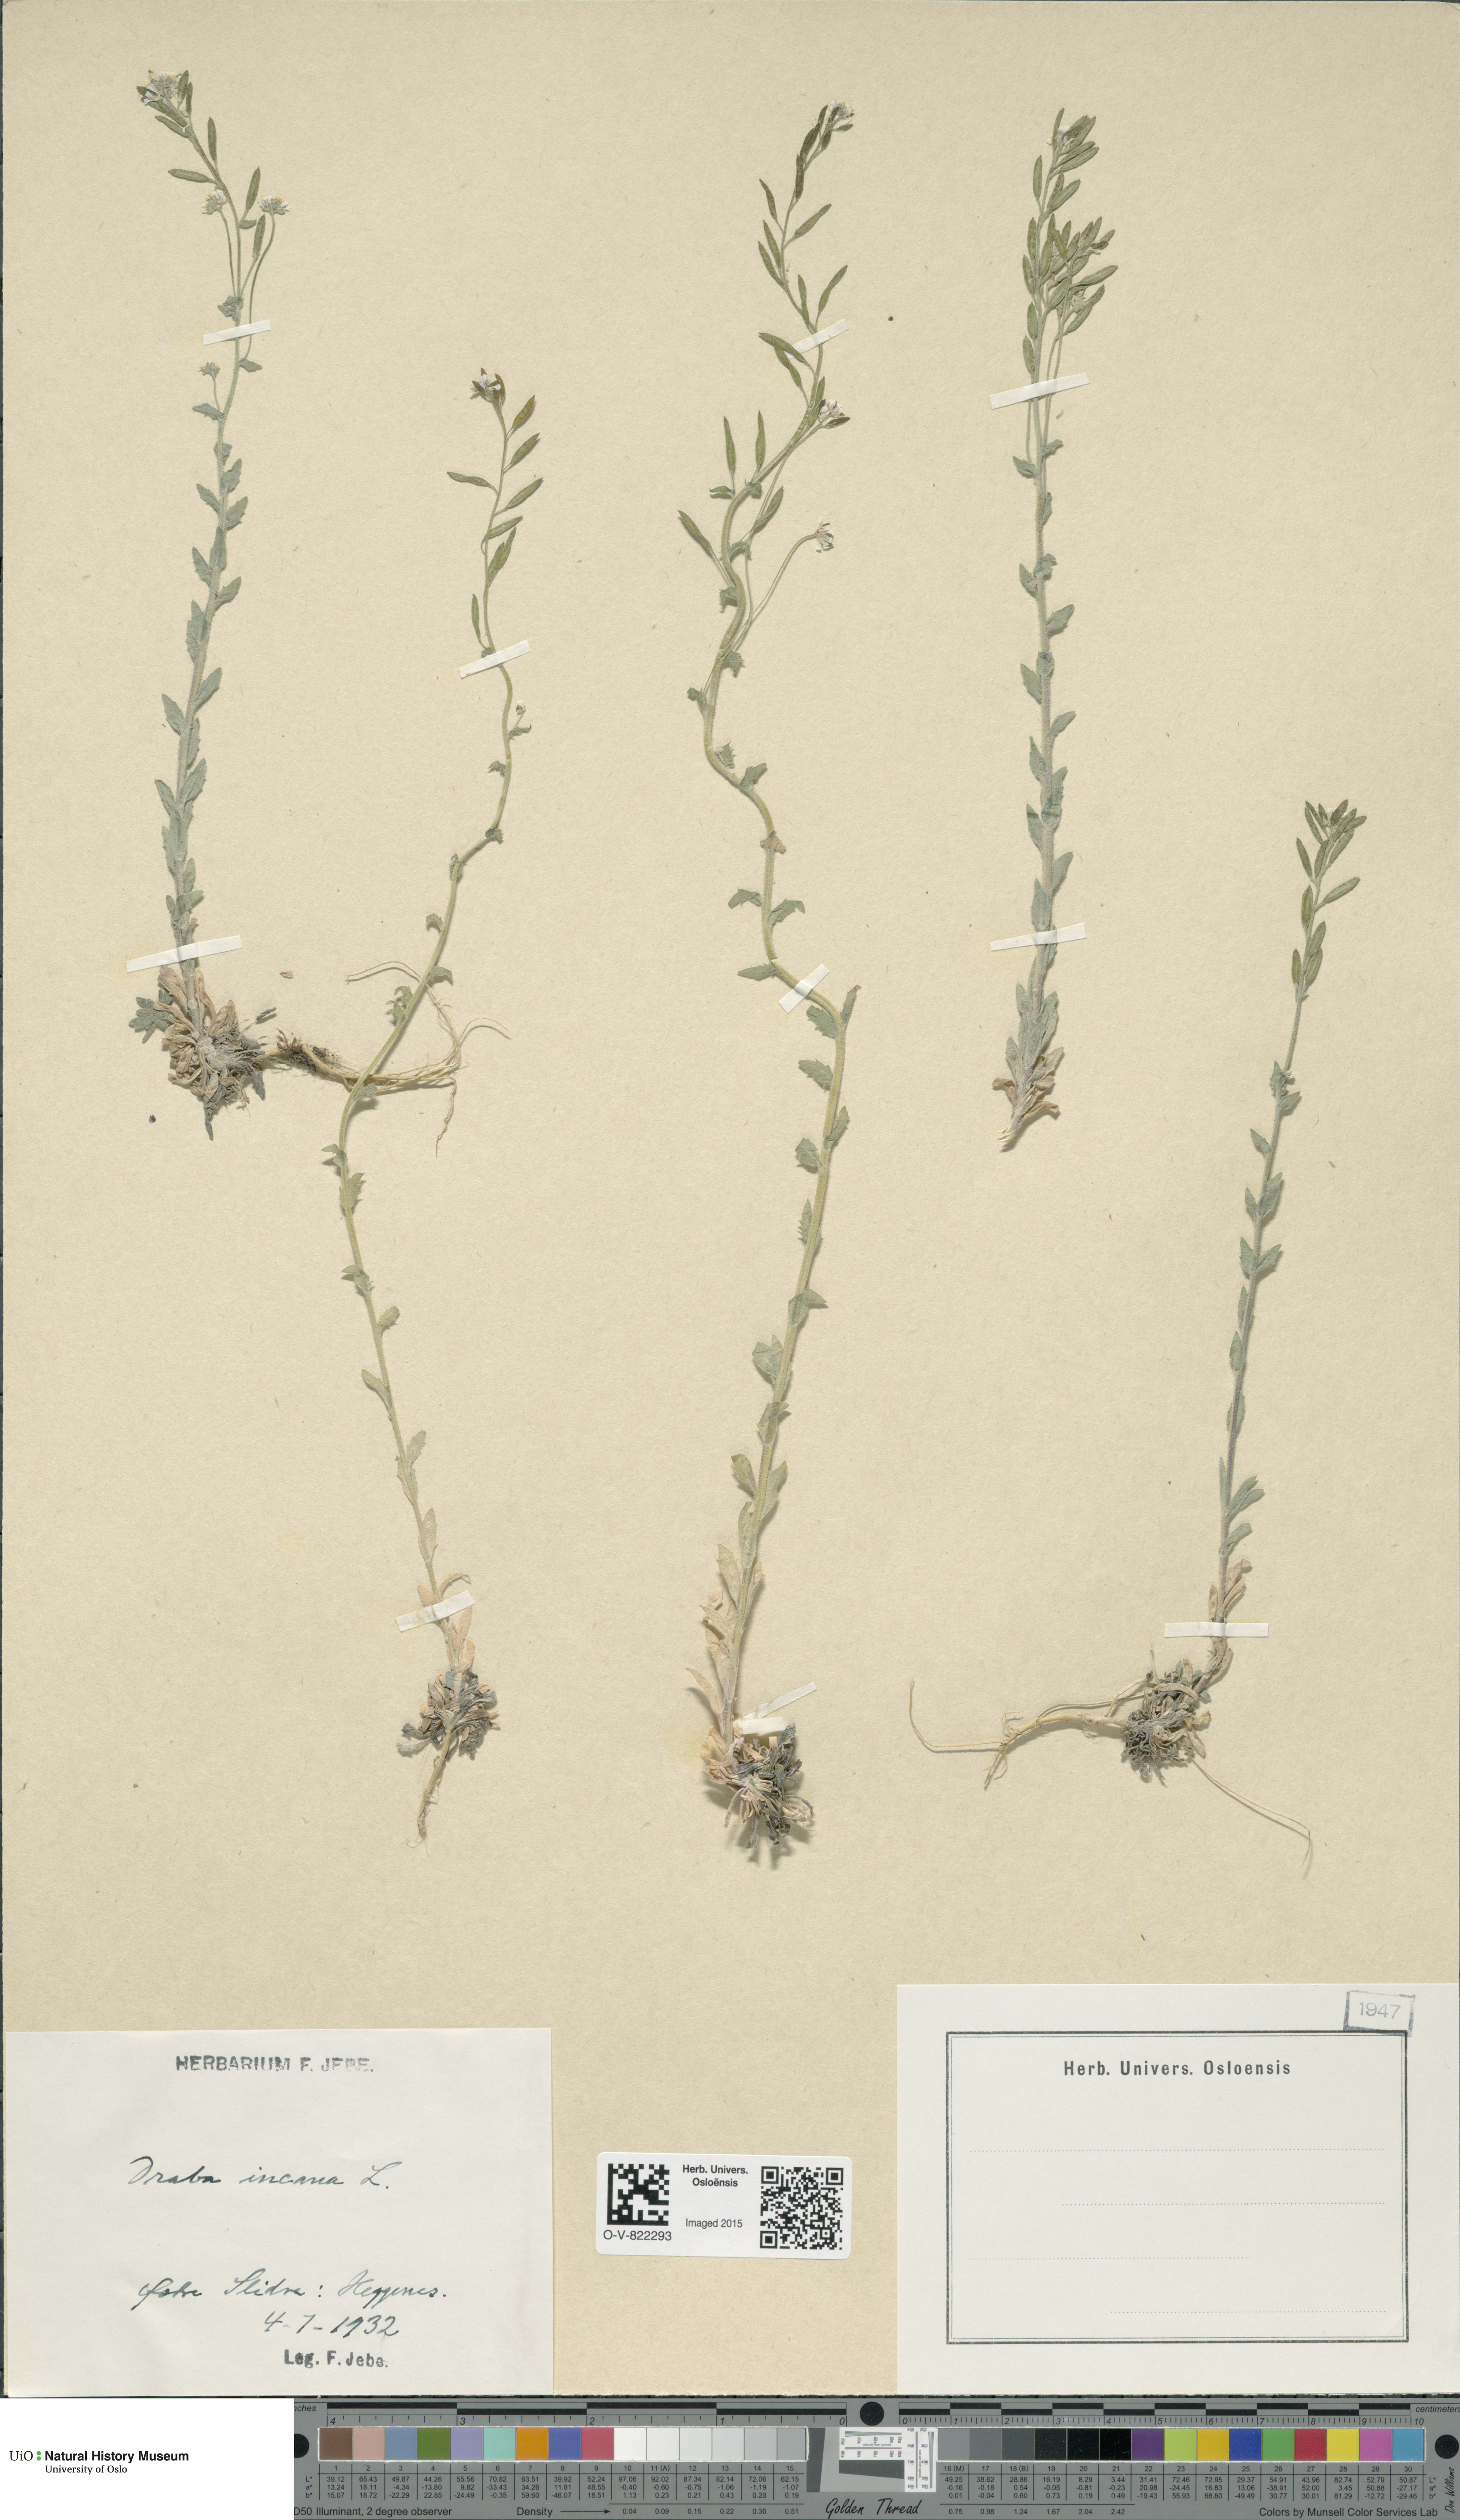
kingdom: Plantae
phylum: Tracheophyta
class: Magnoliopsida
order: Brassicales
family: Brassicaceae
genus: Draba
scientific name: Draba incana
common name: Hoary whitlow-grass
